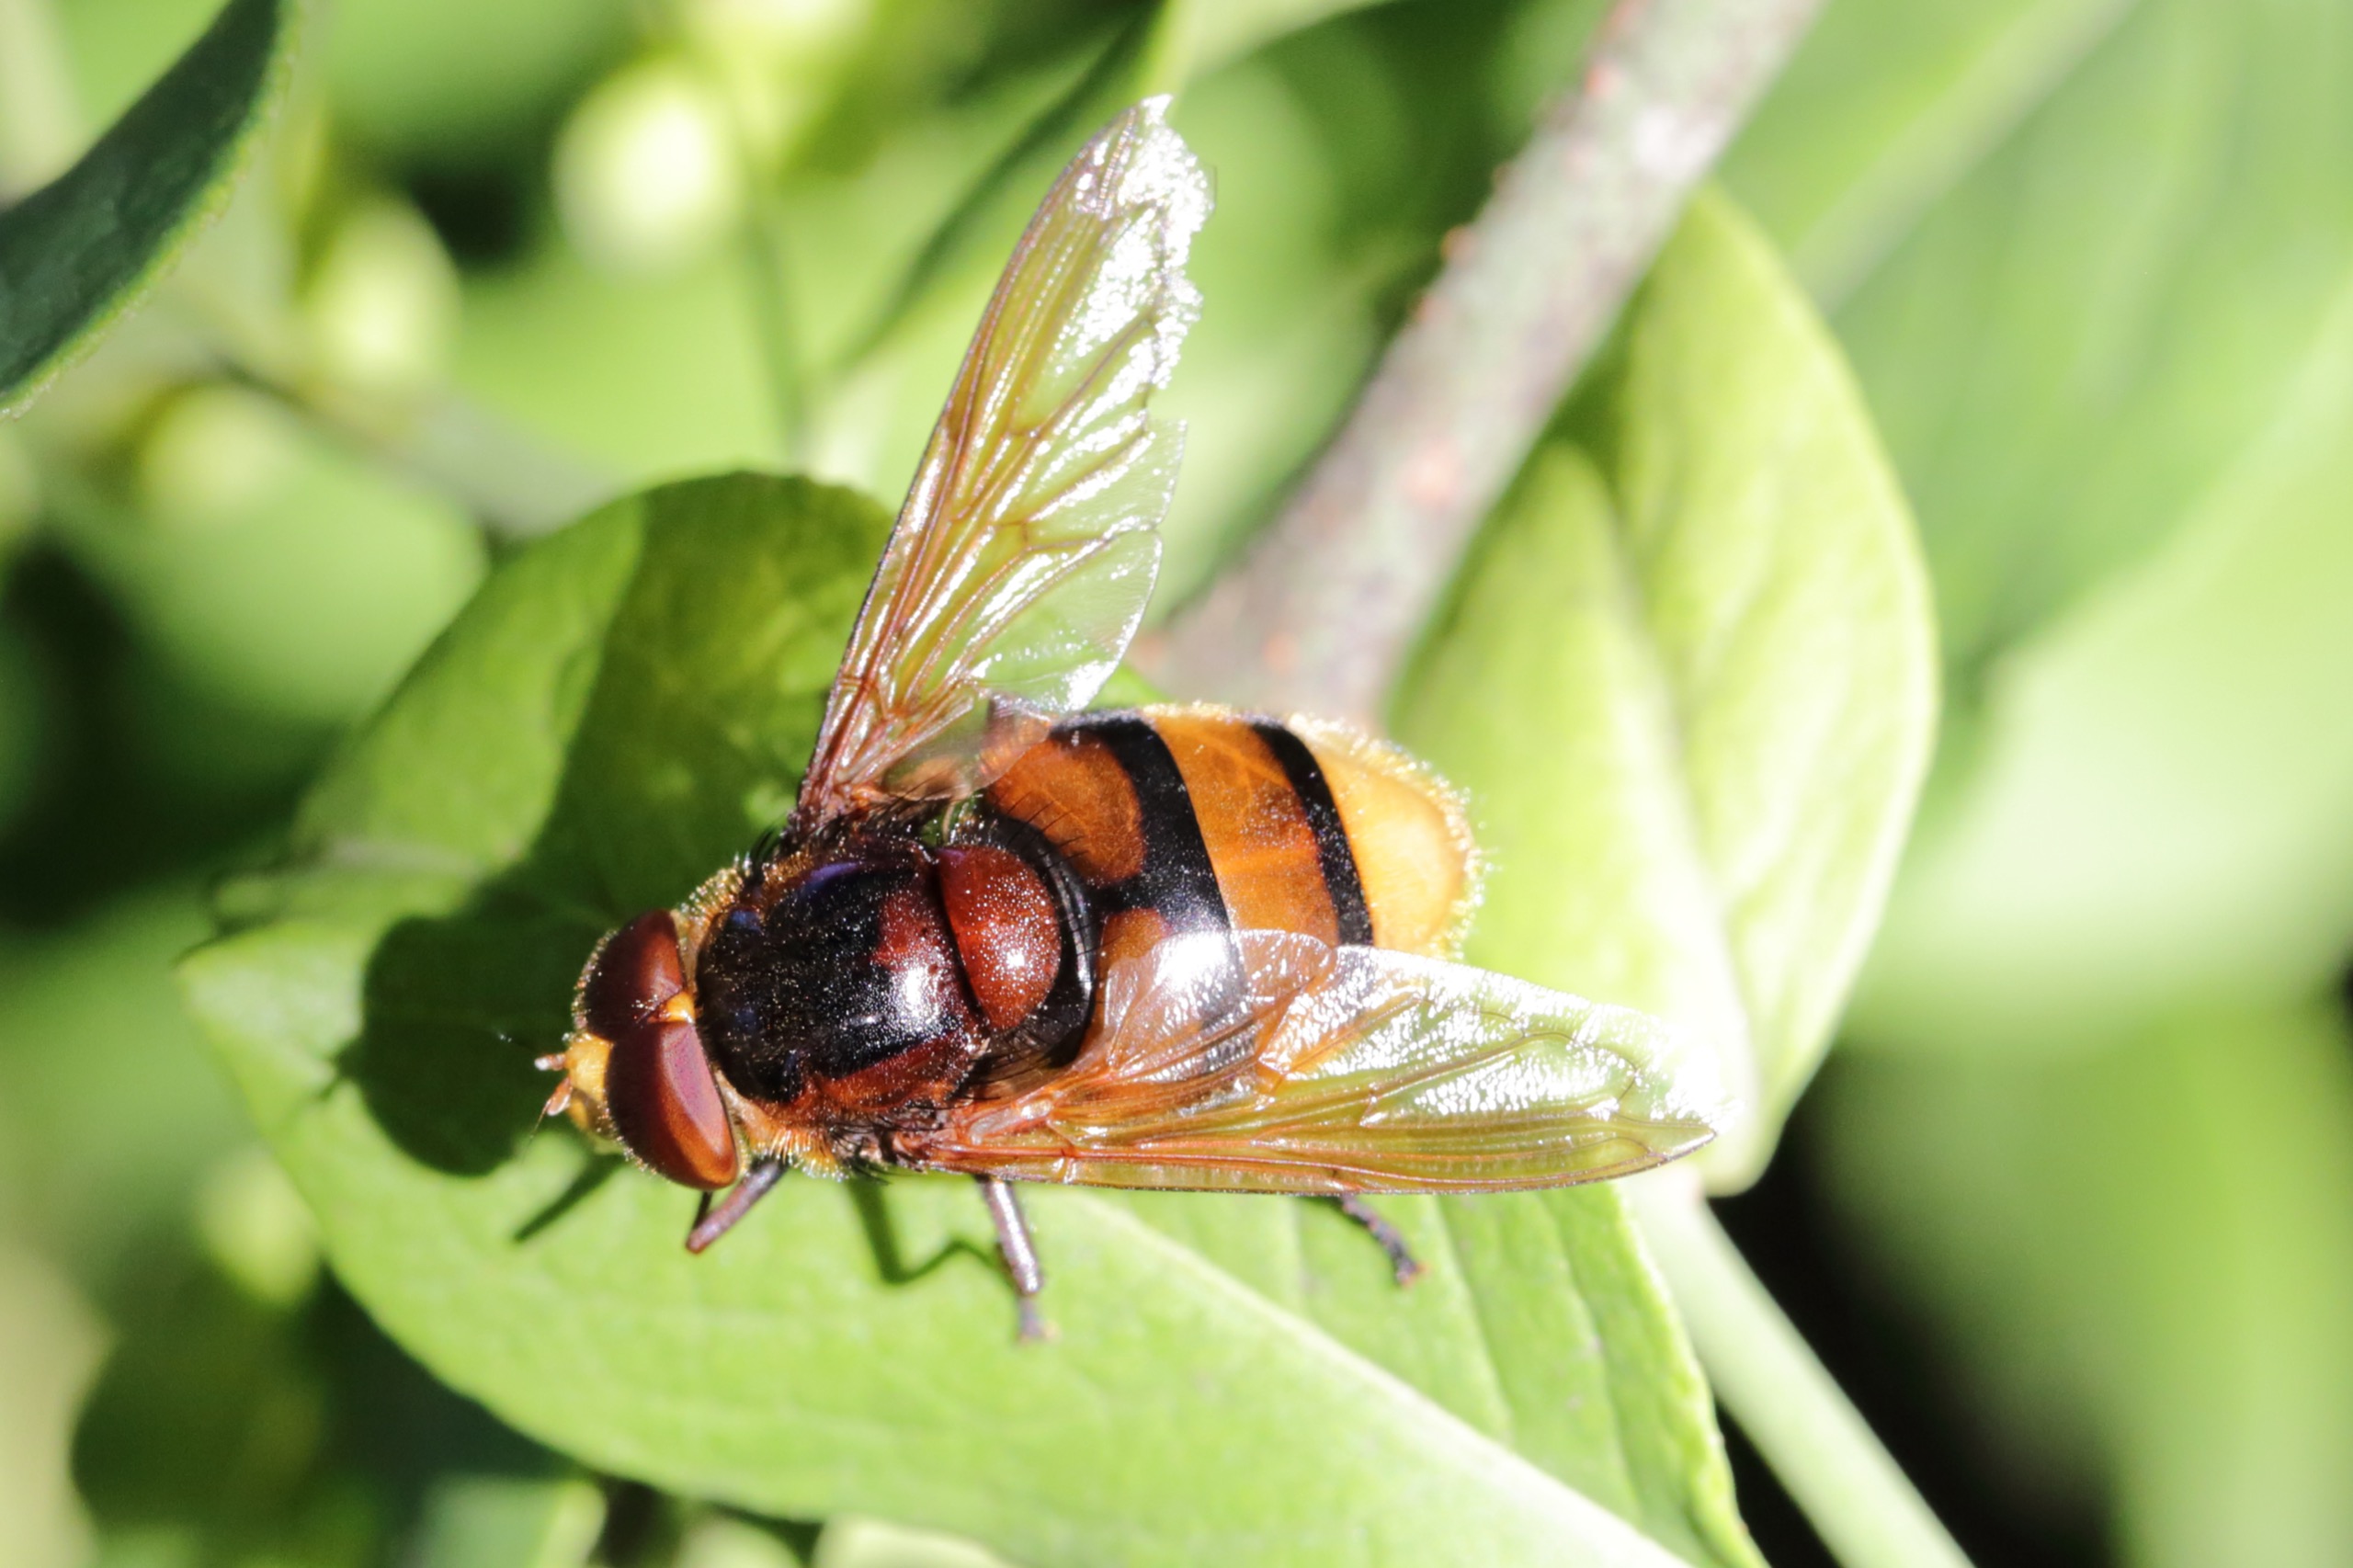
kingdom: Animalia
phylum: Arthropoda
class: Insecta
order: Diptera
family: Syrphidae
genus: Volucella
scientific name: Volucella zonaria
